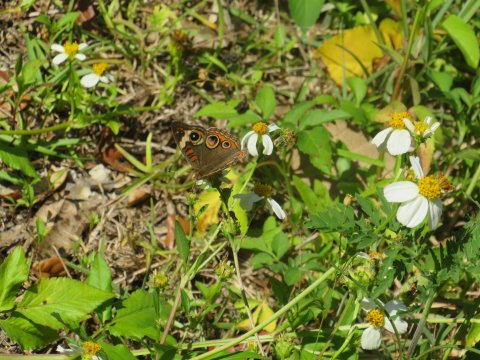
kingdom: Animalia
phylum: Arthropoda
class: Insecta
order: Lepidoptera
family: Nymphalidae
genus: Junonia
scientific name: Junonia coenia
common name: Common Buckeye
